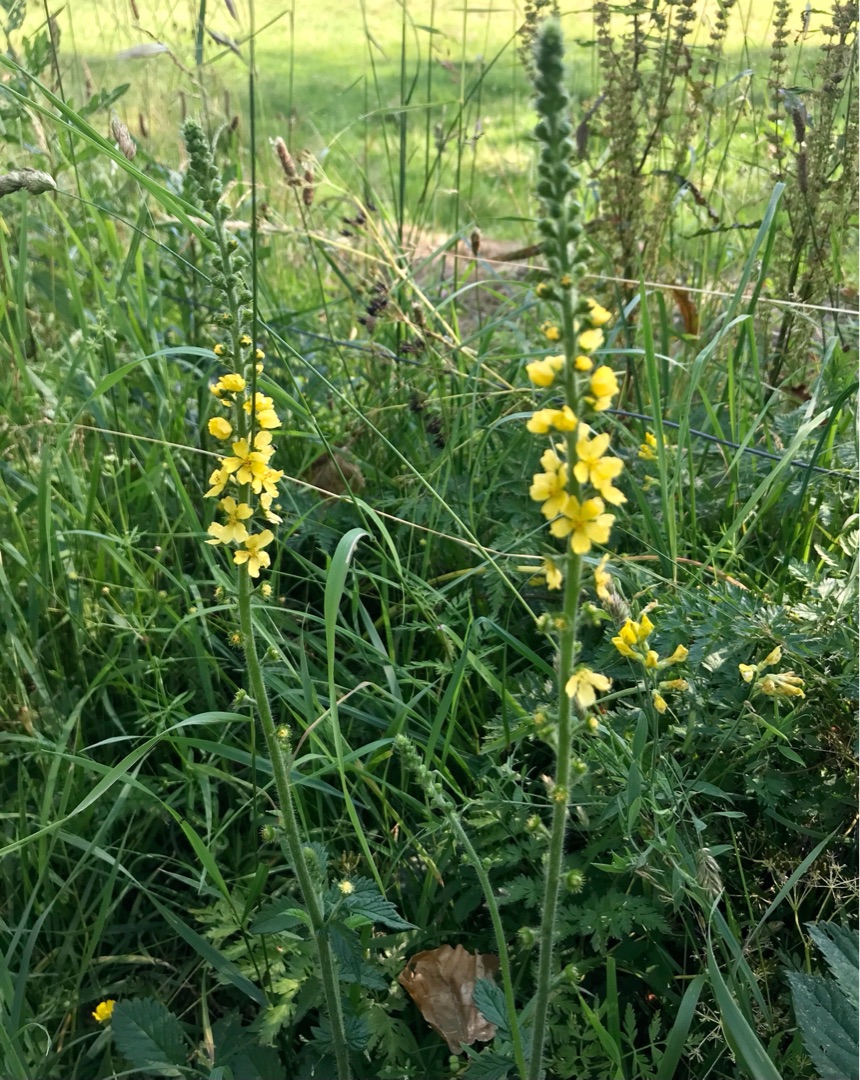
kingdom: Plantae
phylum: Tracheophyta
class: Magnoliopsida
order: Fabales
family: Fabaceae
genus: Lathyrus
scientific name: Lathyrus pratensis
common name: Gul fladbælg
